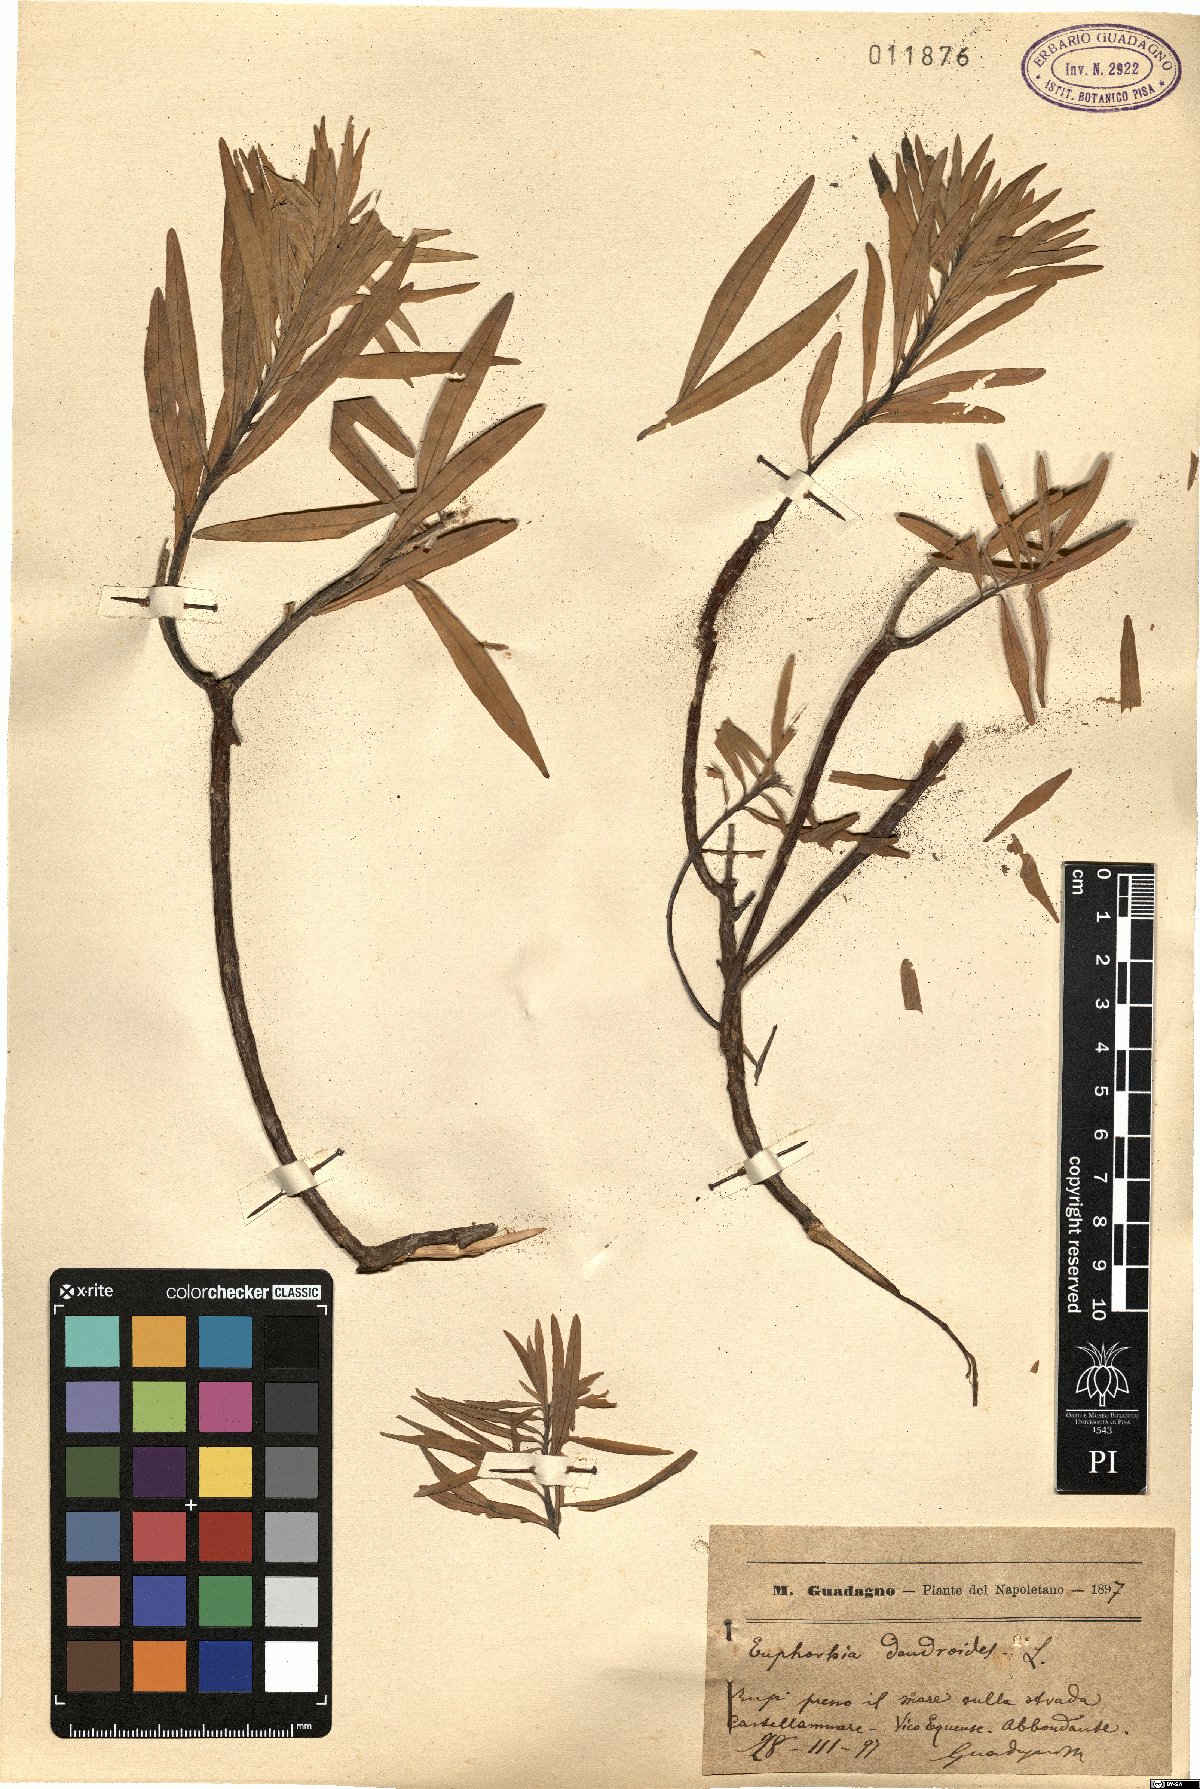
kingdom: Plantae
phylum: Tracheophyta
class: Magnoliopsida
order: Malpighiales
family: Euphorbiaceae
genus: Euphorbia
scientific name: Euphorbia dendroides
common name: Tree spurge
